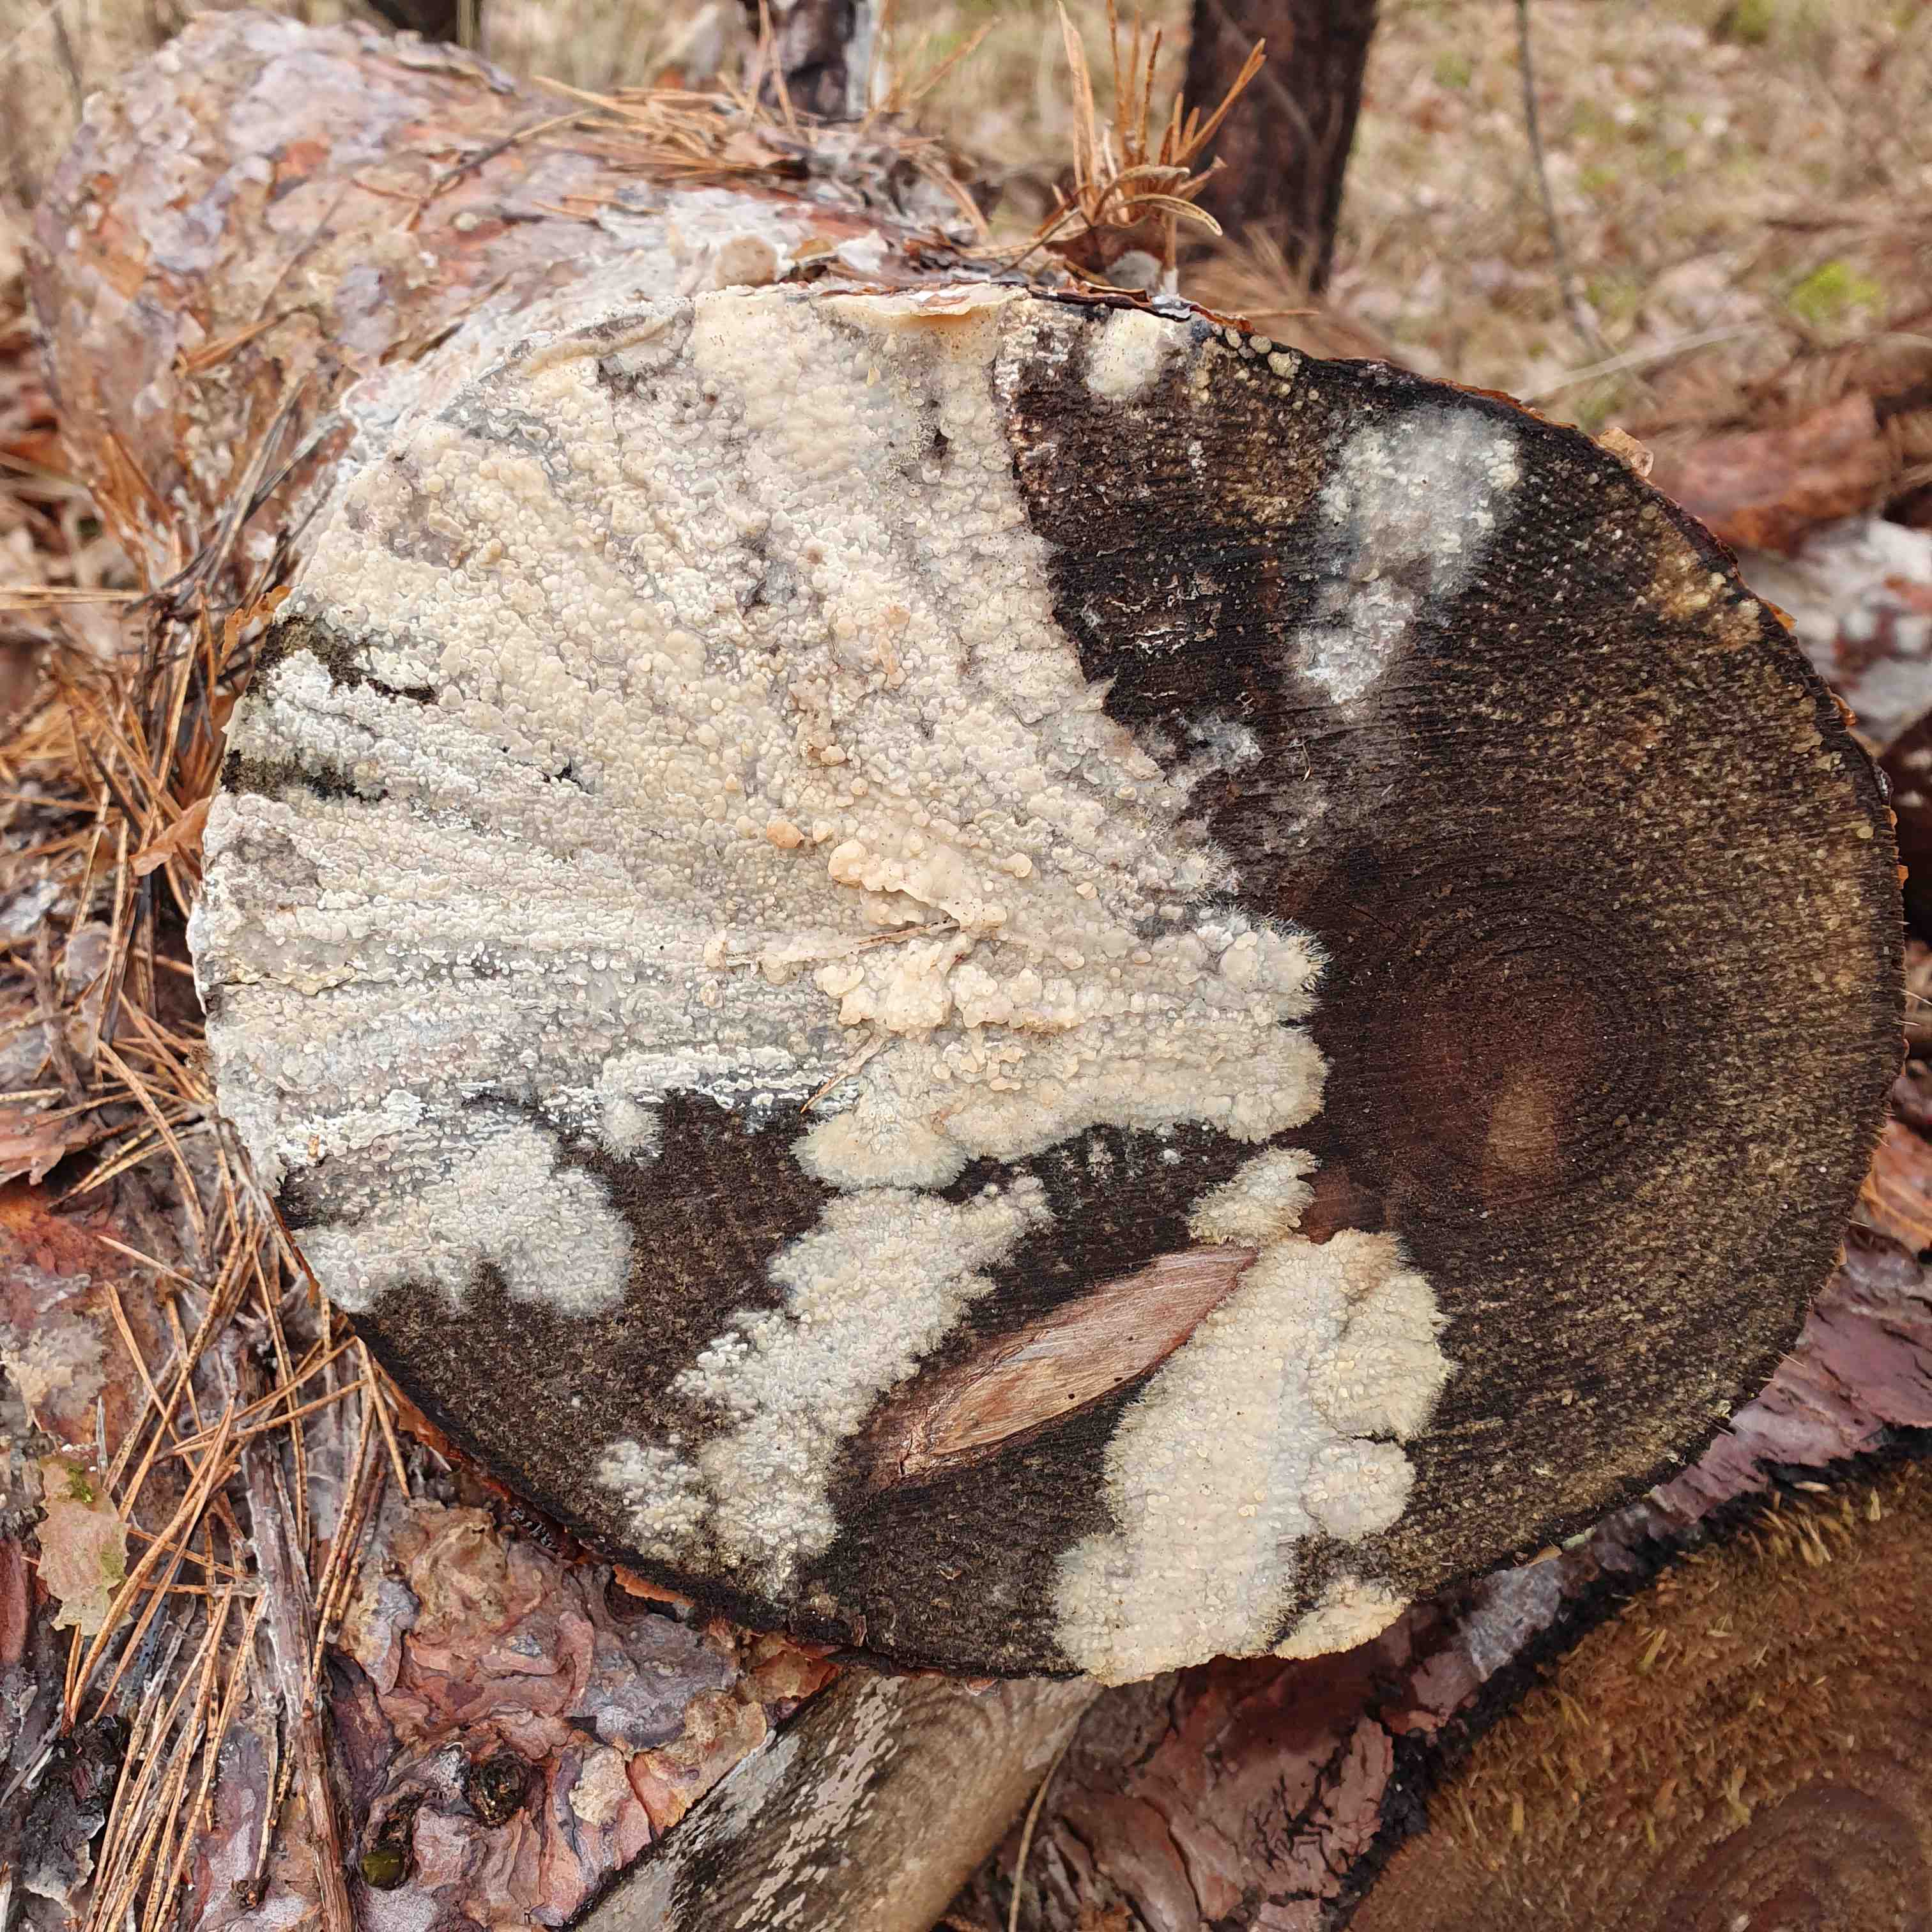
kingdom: Fungi
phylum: Basidiomycota
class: Agaricomycetes
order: Polyporales
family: Phanerochaetaceae
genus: Phlebiopsis
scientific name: Phlebiopsis gigantea
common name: kæmpebarksvamp
